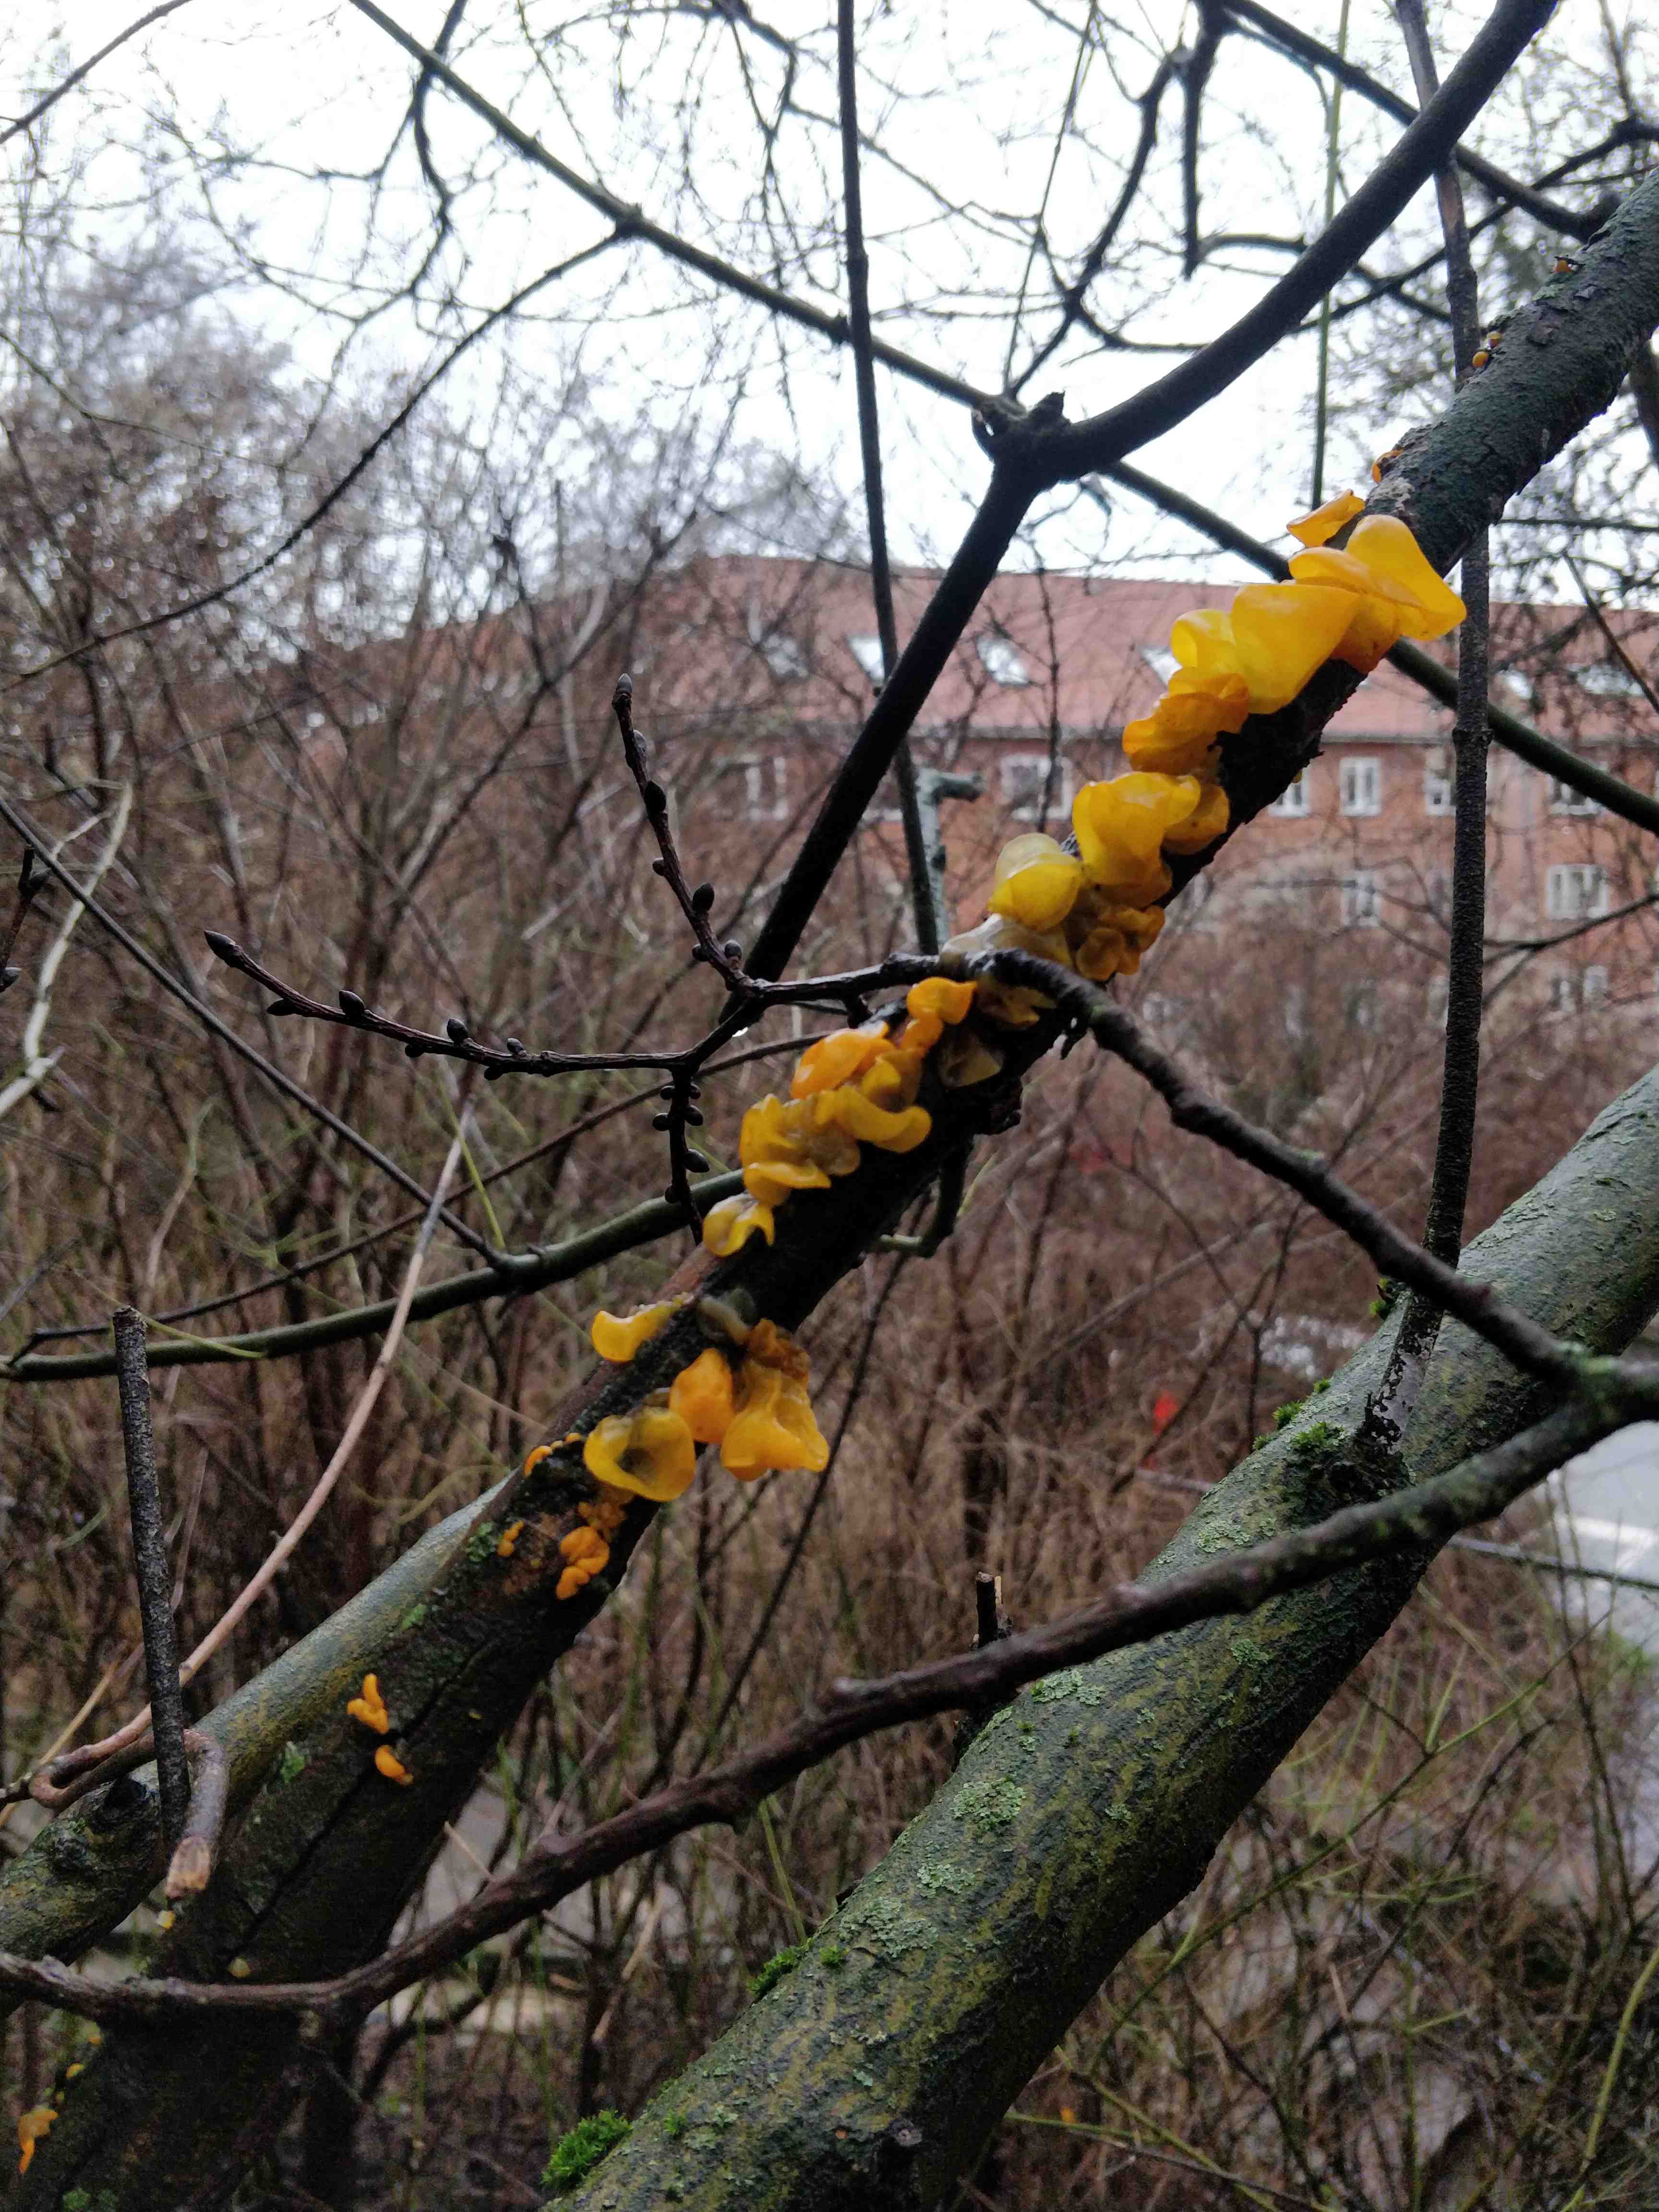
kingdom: Fungi
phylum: Basidiomycota
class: Tremellomycetes
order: Tremellales
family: Tremellaceae
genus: Tremella
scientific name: Tremella mesenterica
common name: gul bævresvamp
